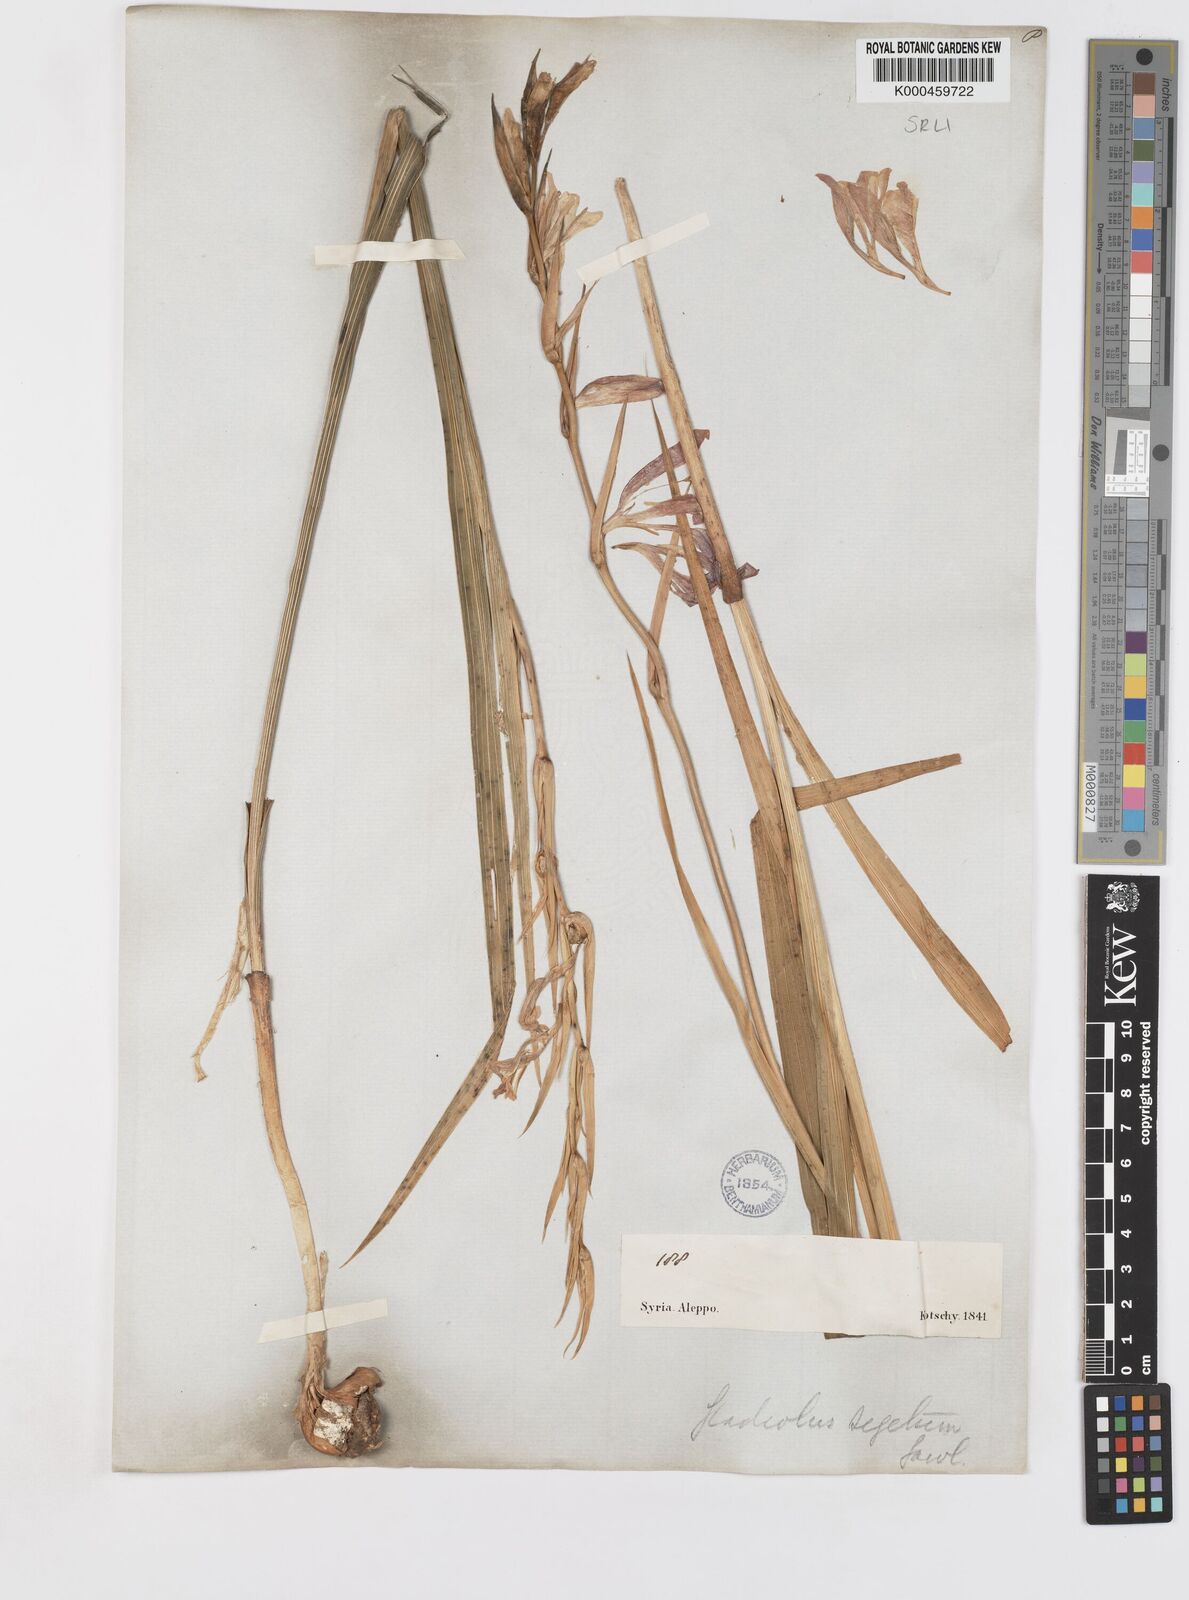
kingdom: Plantae
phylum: Tracheophyta
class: Liliopsida
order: Asparagales
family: Iridaceae
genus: Gladiolus
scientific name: Gladiolus italicus
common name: Field gladiolus
